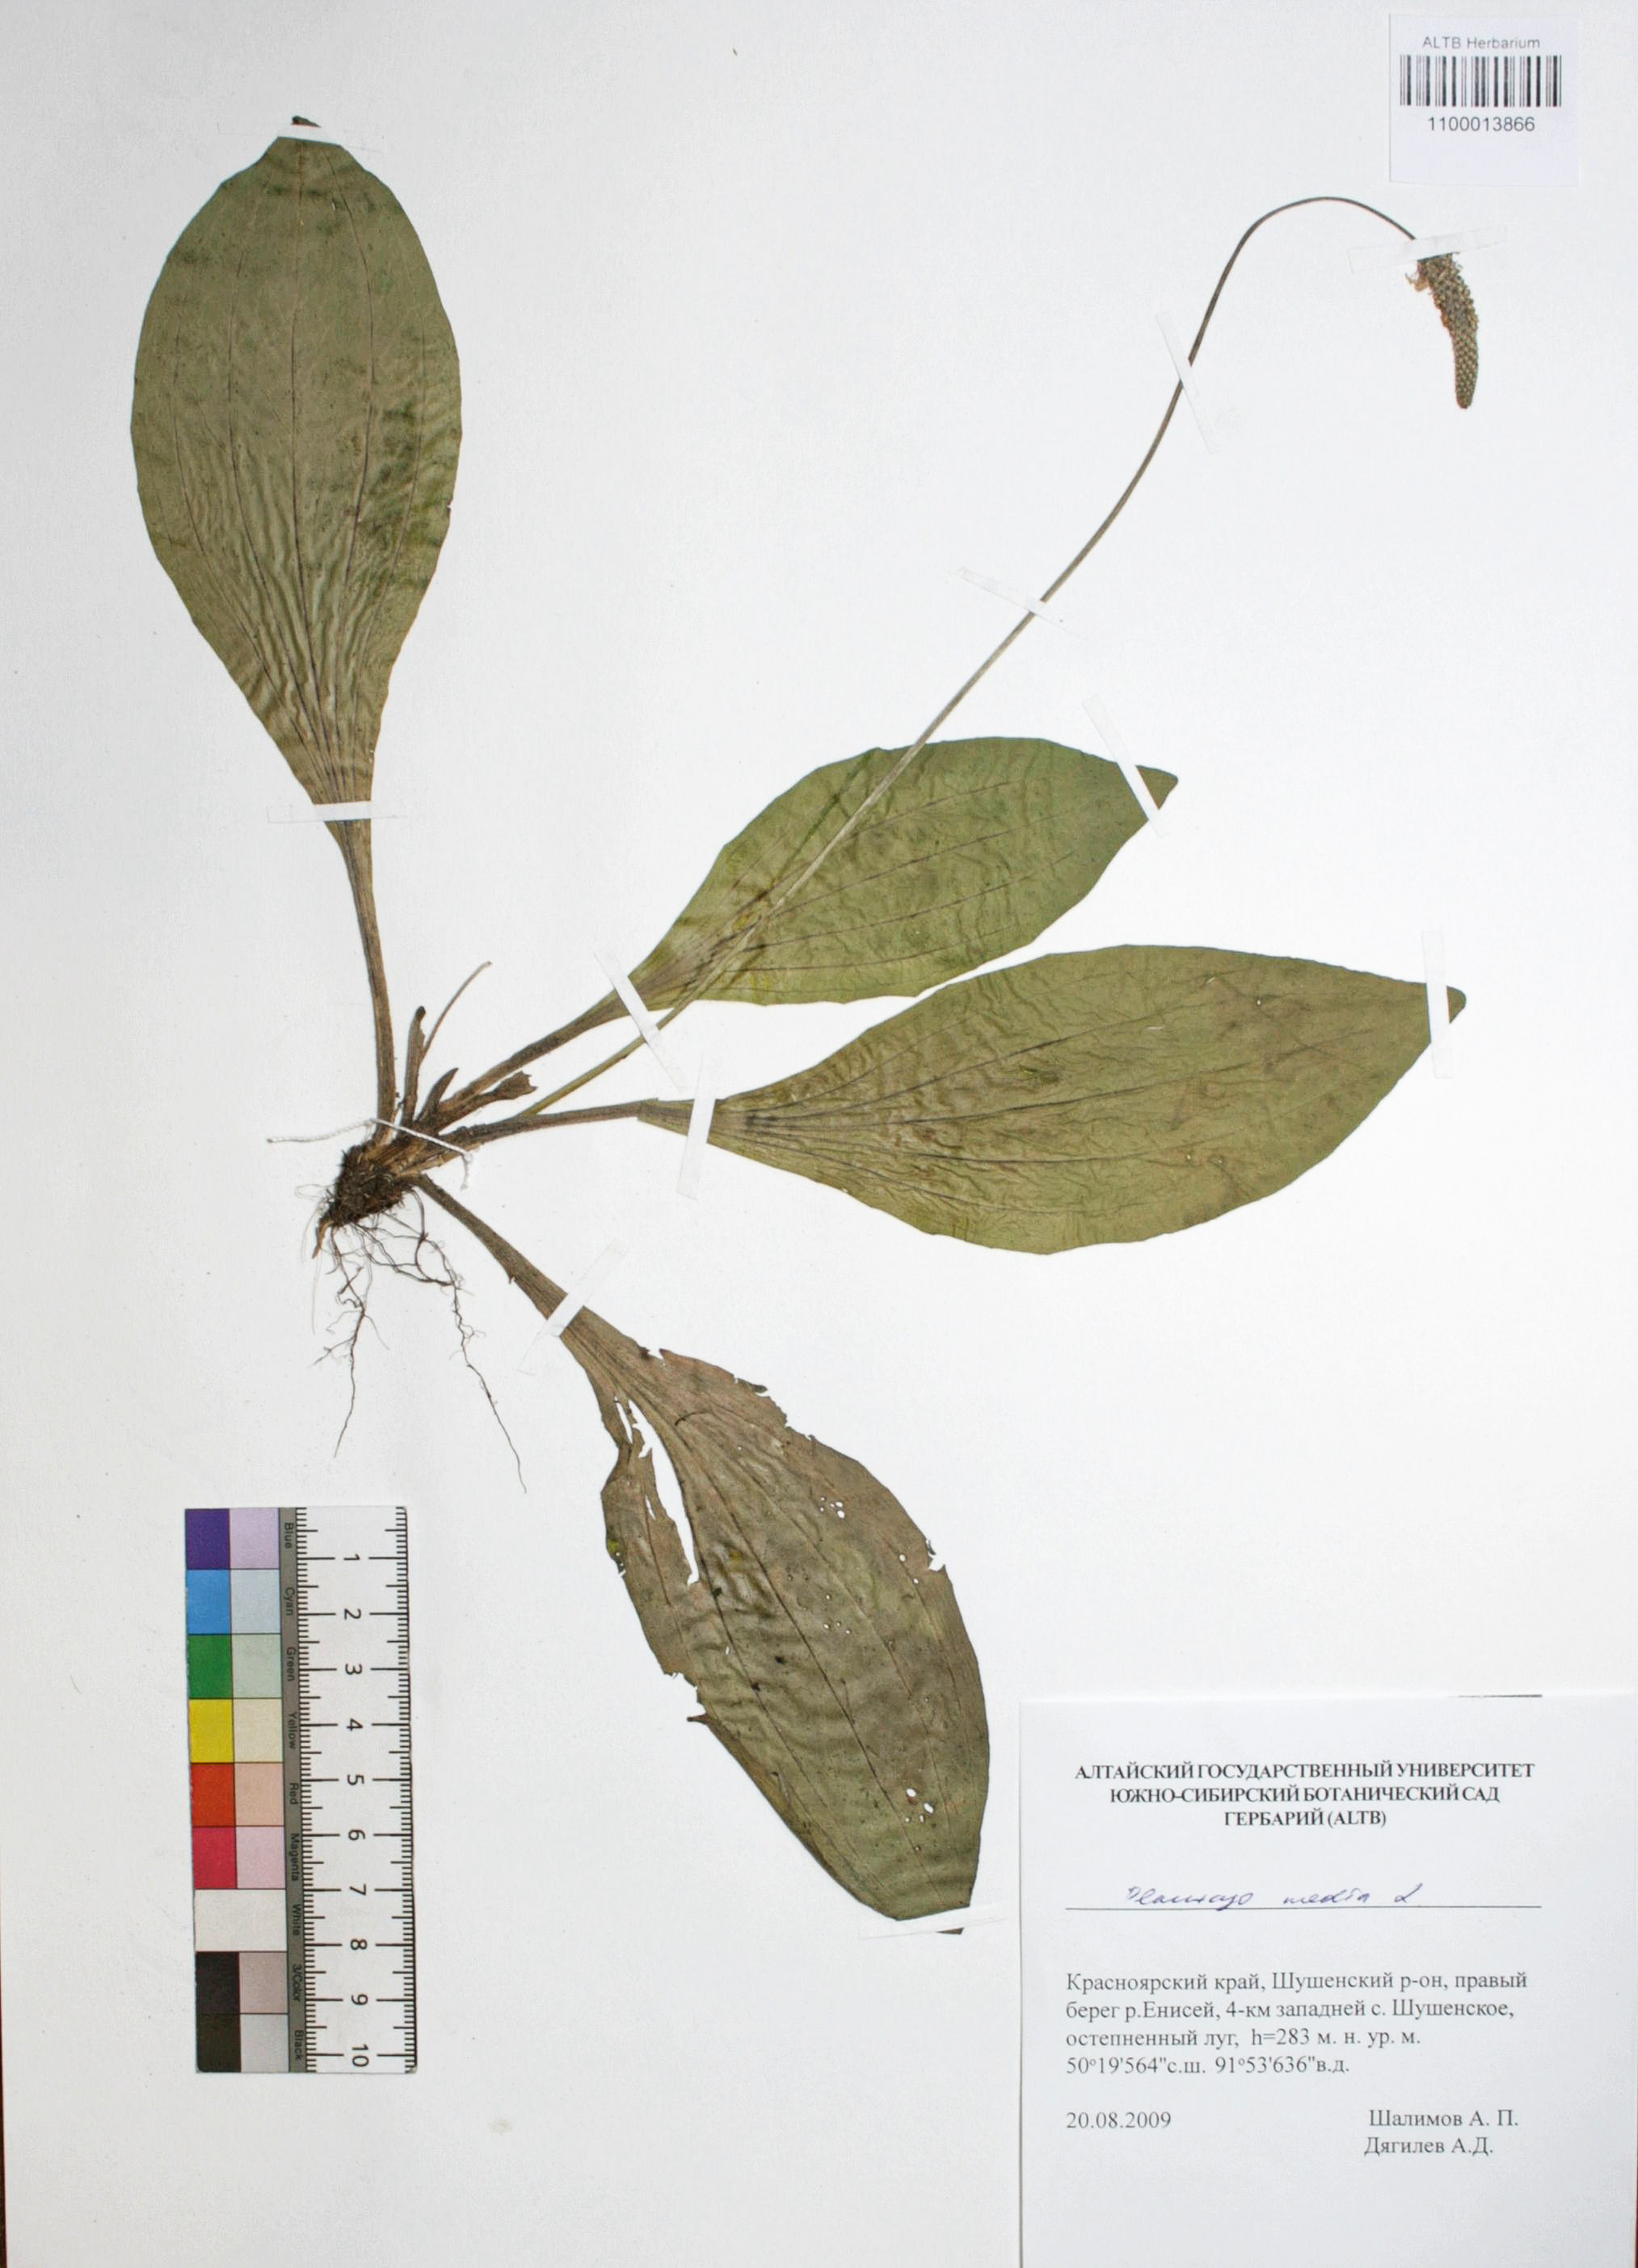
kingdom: Plantae
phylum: Tracheophyta
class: Magnoliopsida
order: Lamiales
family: Plantaginaceae
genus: Plantago
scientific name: Plantago media
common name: Hoary plantain
